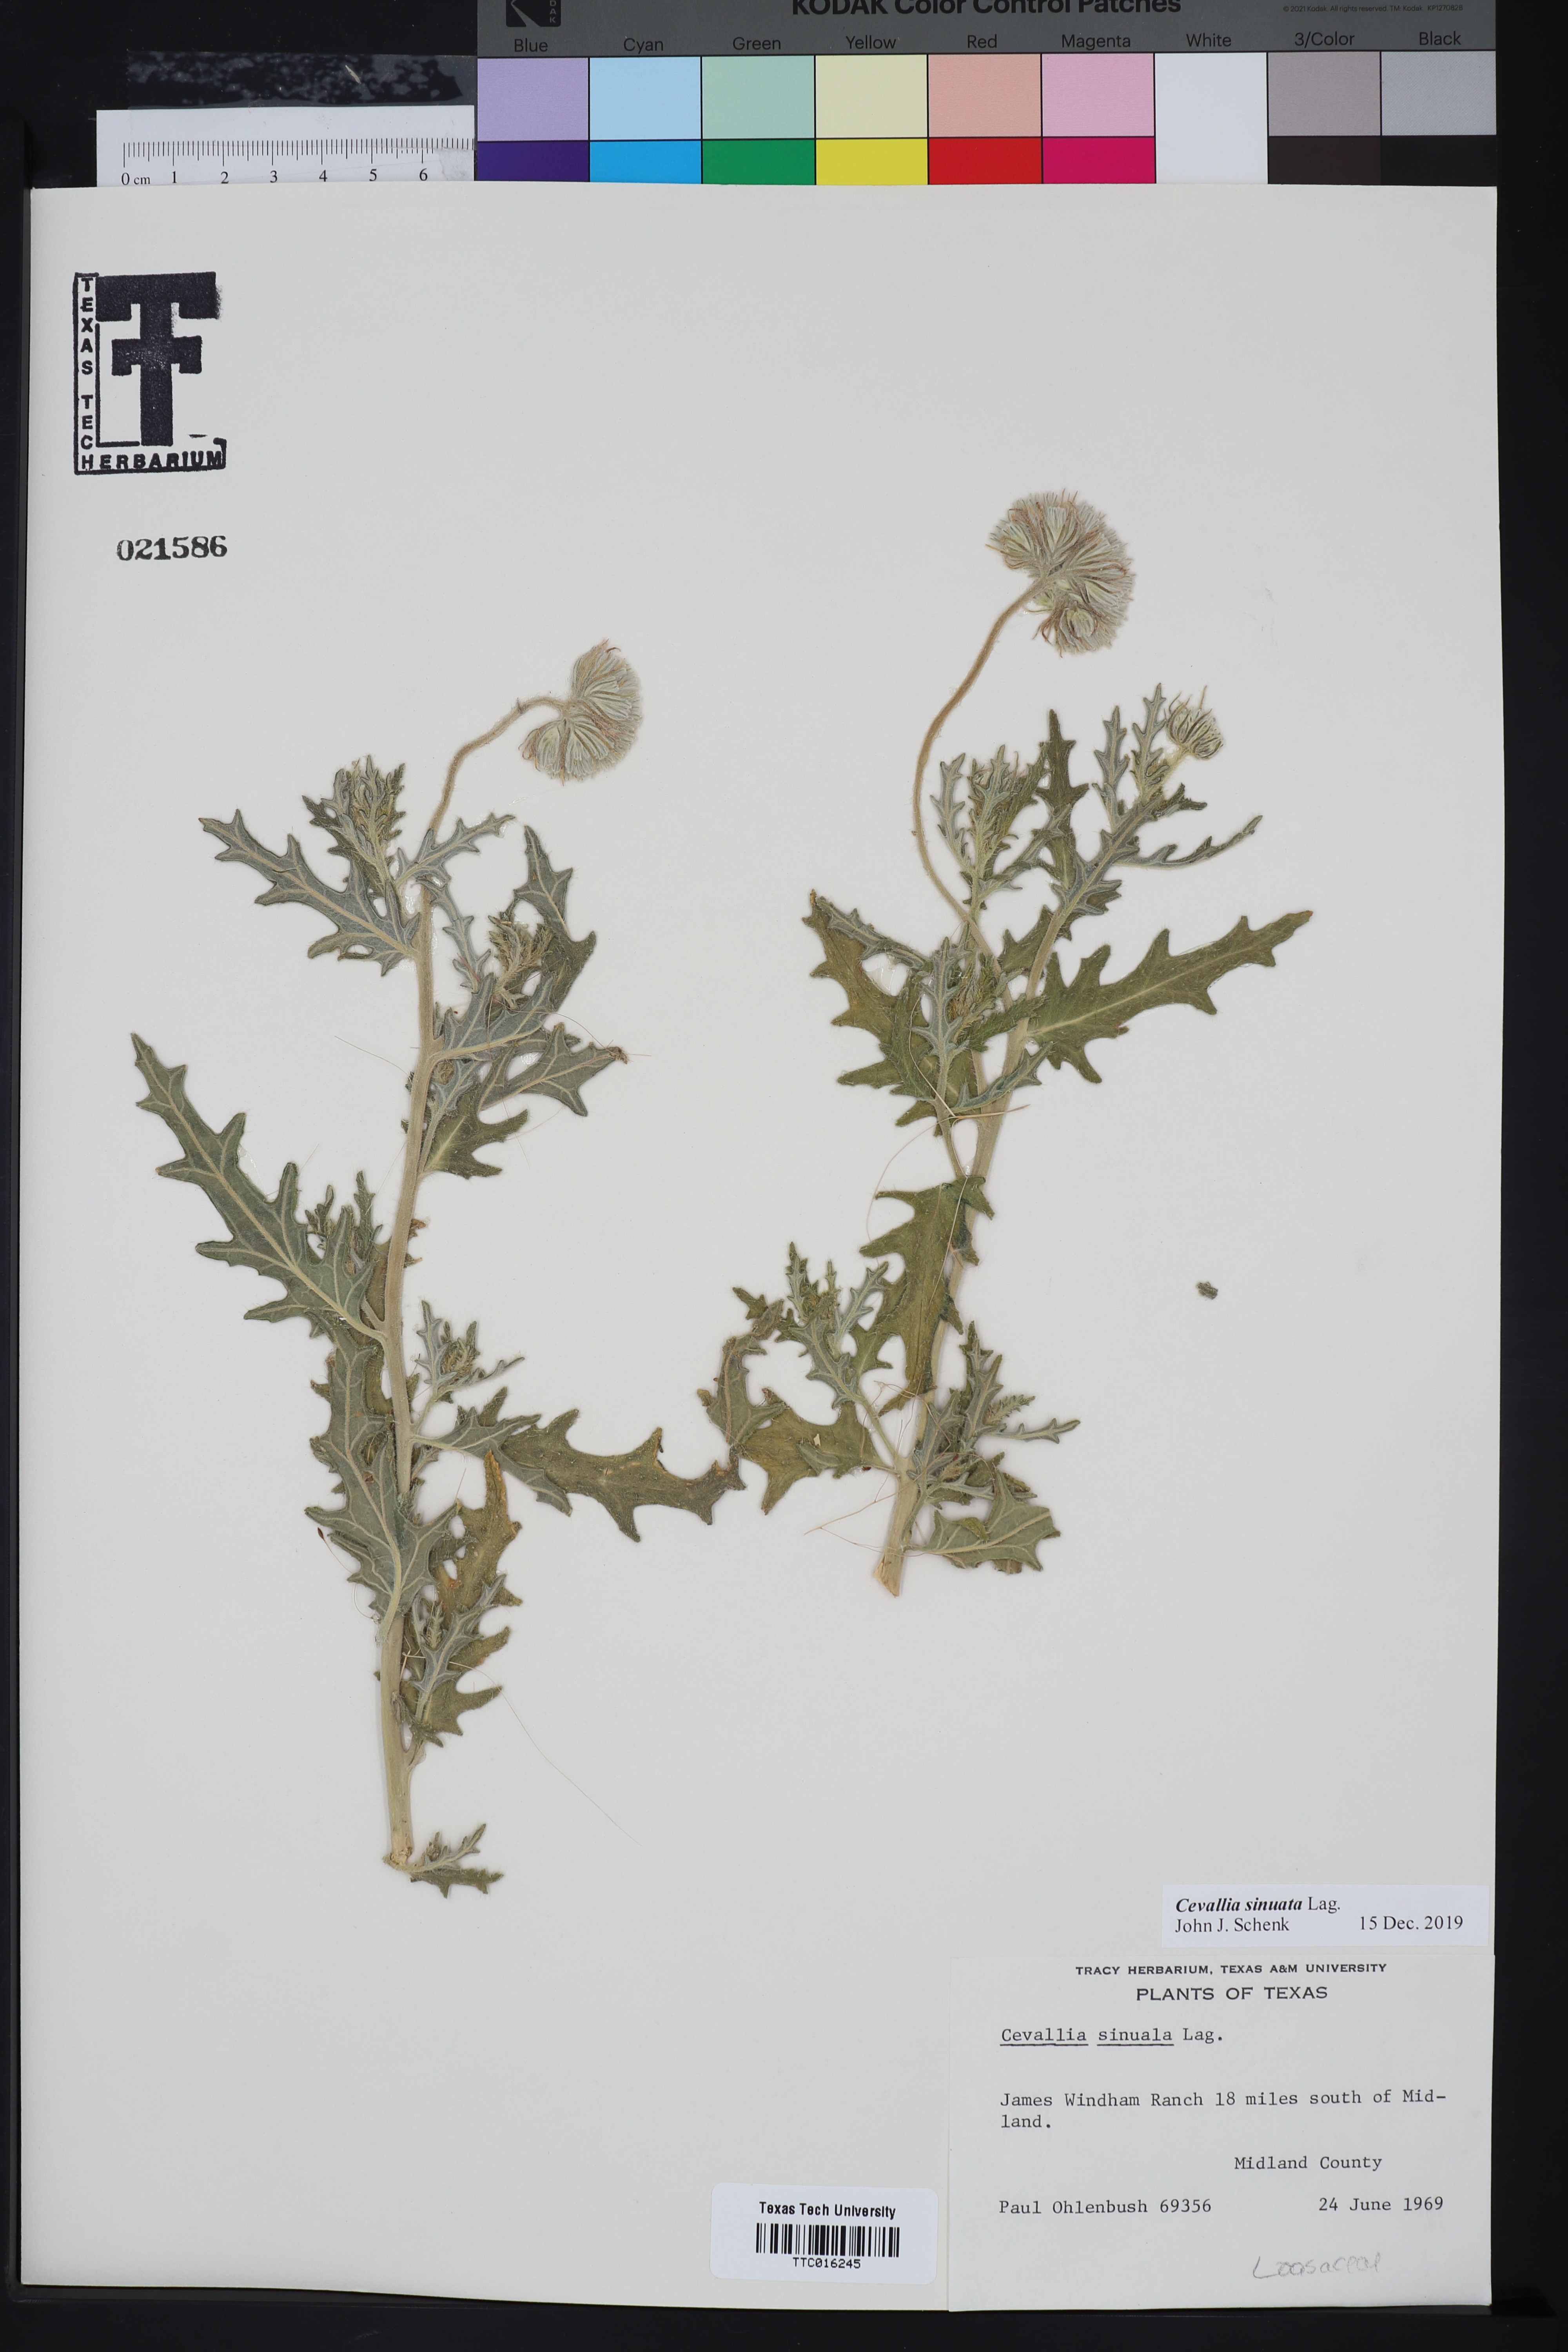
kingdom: Plantae
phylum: Tracheophyta
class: Magnoliopsida
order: Cornales
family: Loasaceae
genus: Cevallia
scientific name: Cevallia sinuata
